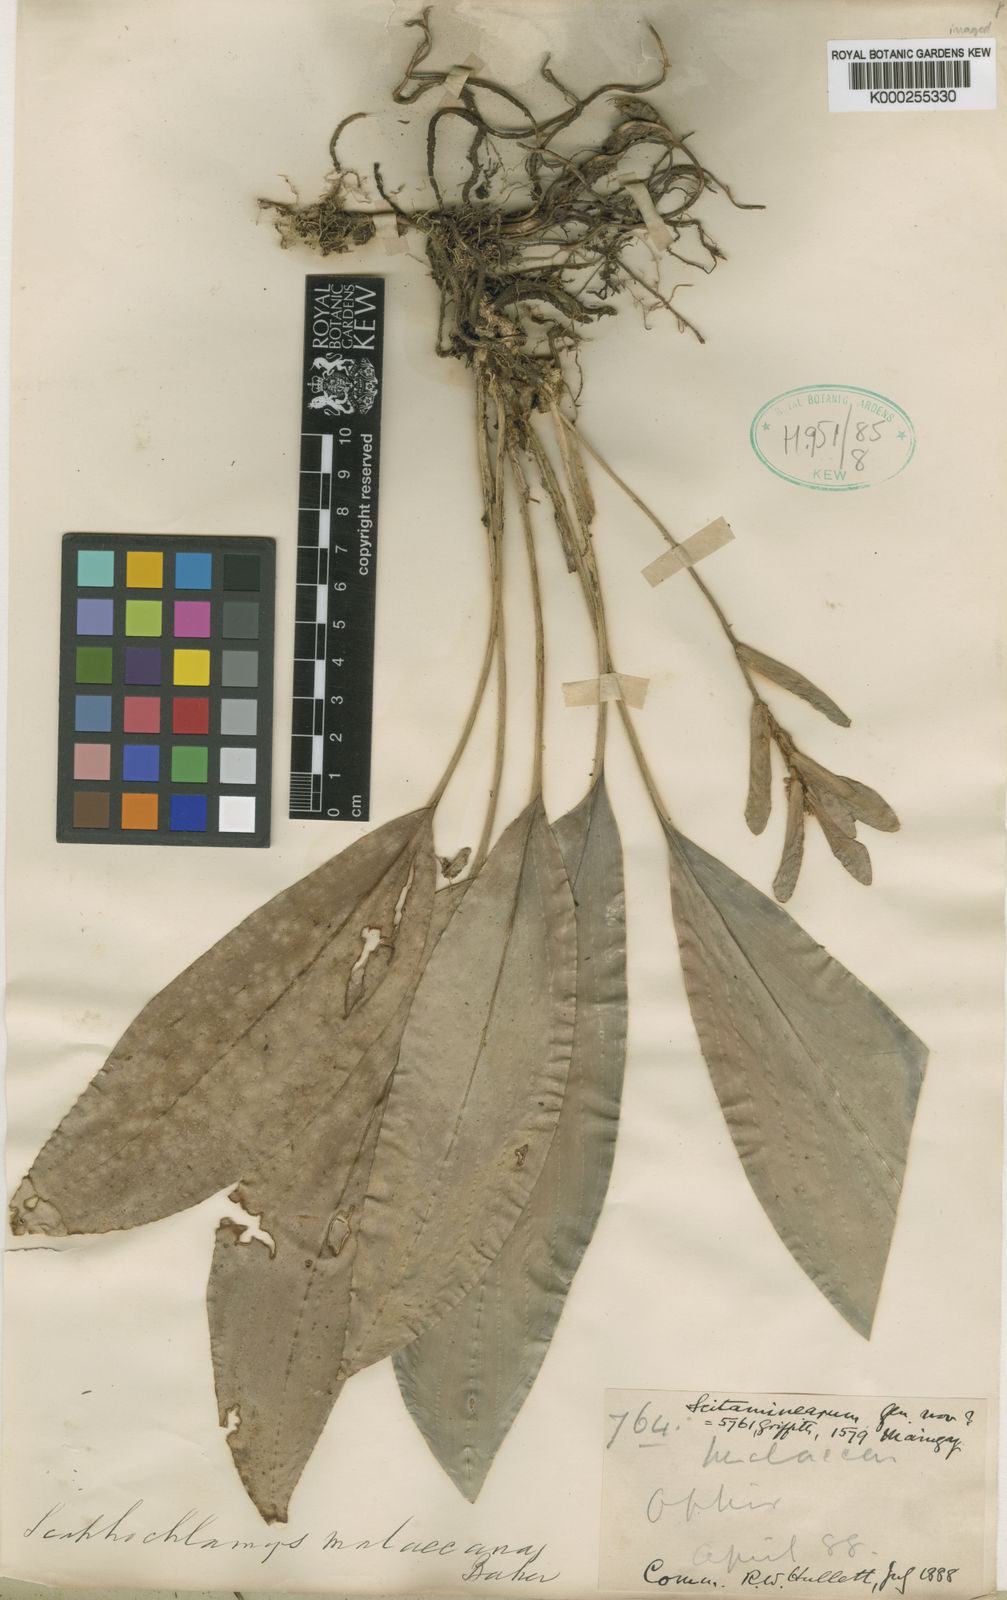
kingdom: Plantae
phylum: Tracheophyta
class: Liliopsida
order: Zingiberales
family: Zingiberaceae
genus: Scaphochlamys
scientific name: Scaphochlamys malaccana
